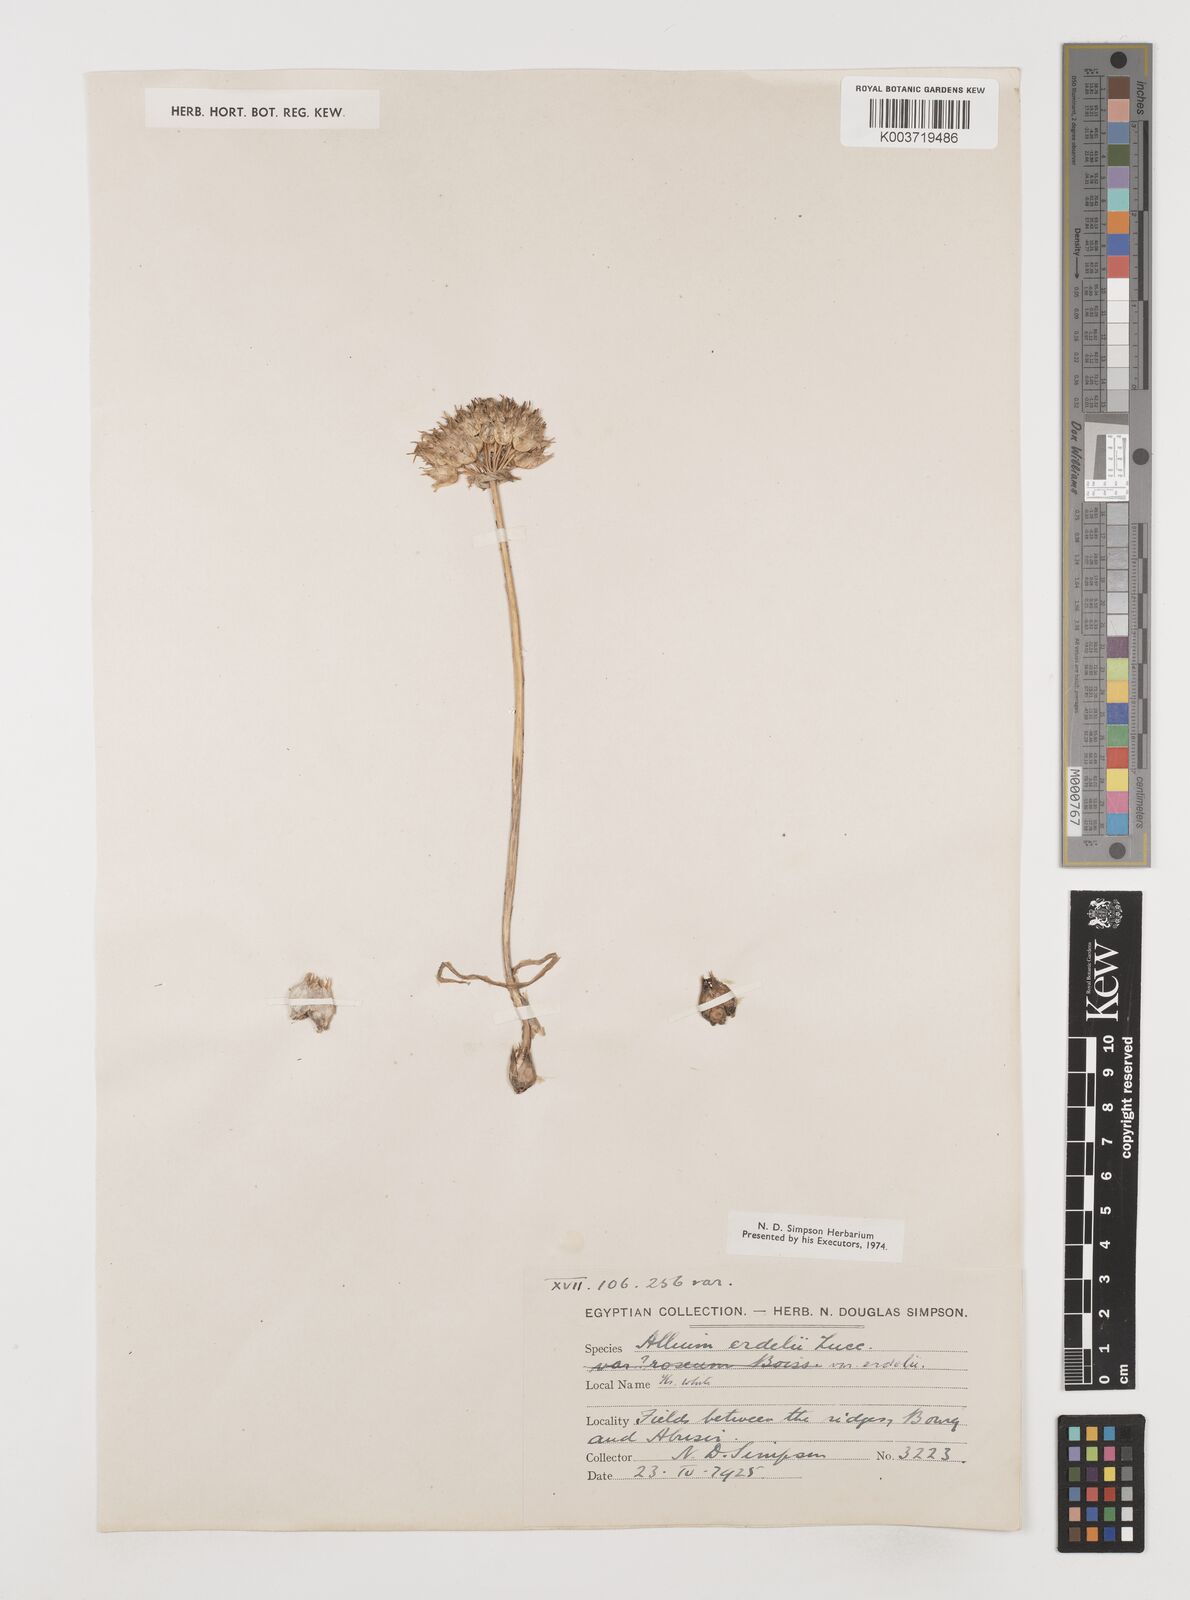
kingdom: Plantae
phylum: Tracheophyta
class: Liliopsida
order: Asparagales
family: Amaryllidaceae
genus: Allium
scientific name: Allium erdelii
